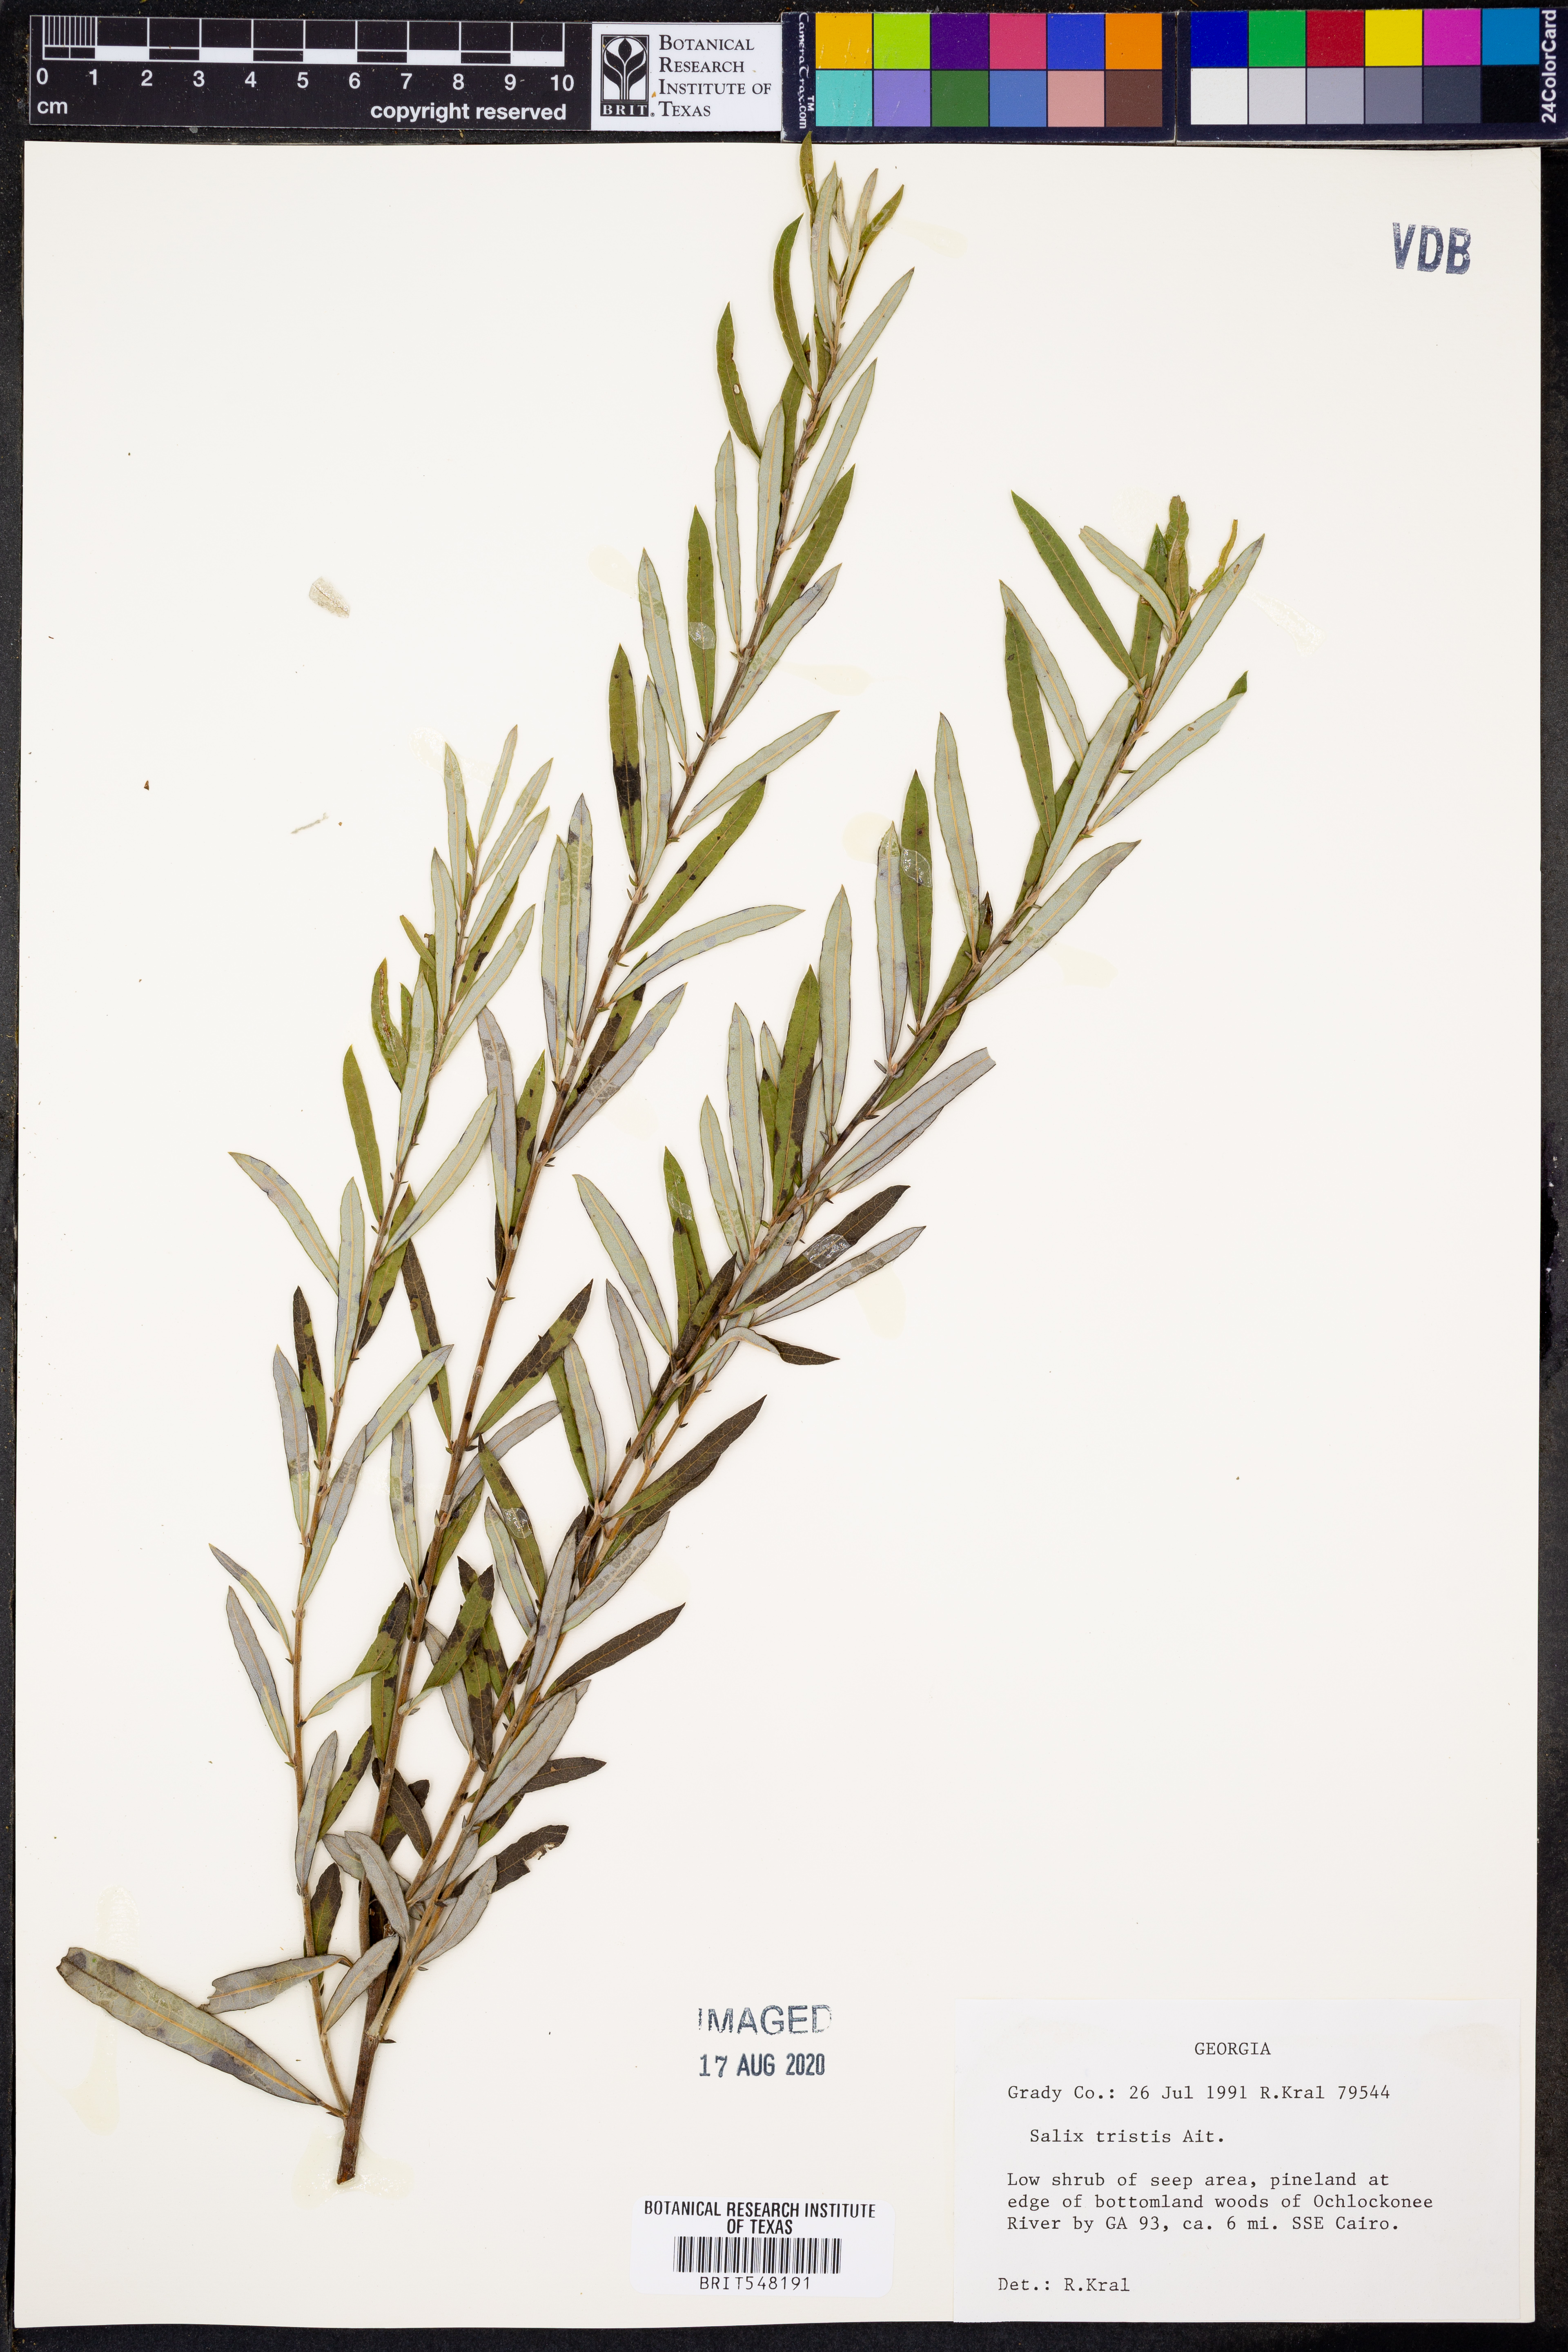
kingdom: Plantae
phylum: Tracheophyta
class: Magnoliopsida
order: Malpighiales
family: Salicaceae
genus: Salix
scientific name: Salix humilis
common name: Prairie willow
